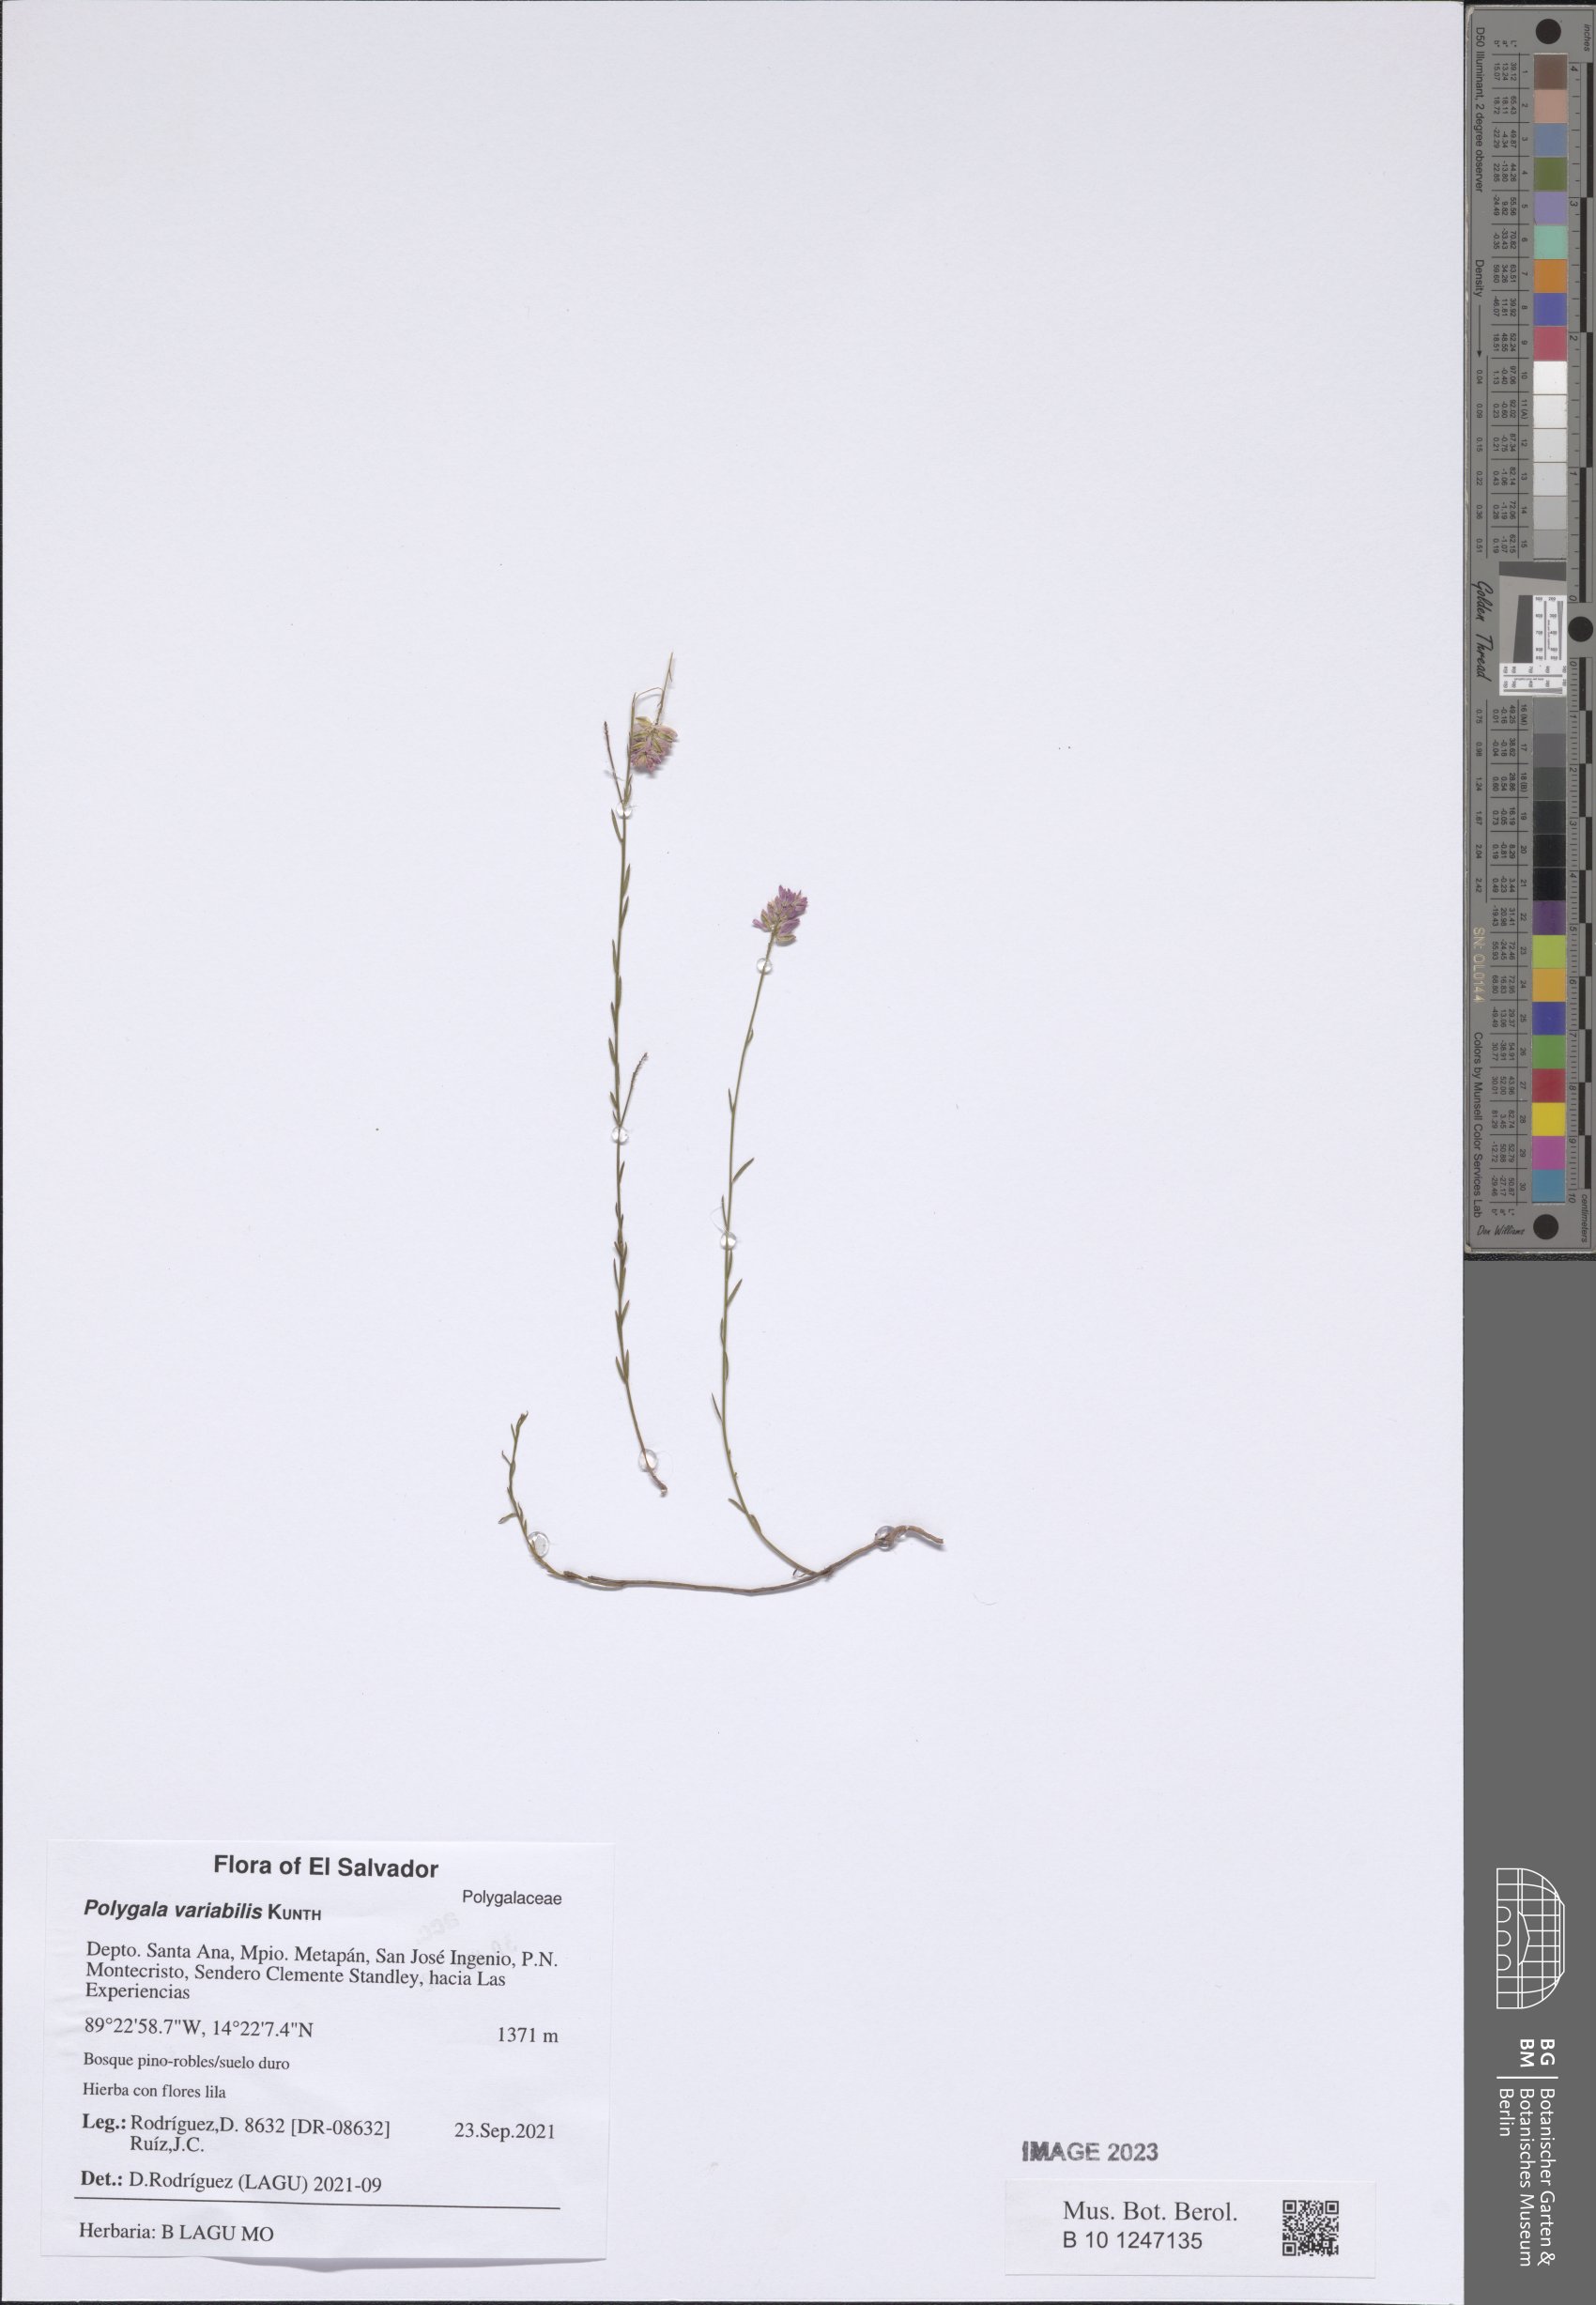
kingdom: Plantae
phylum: Tracheophyta
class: Magnoliopsida
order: Fabales
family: Polygalaceae
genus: Polygala
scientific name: Polygala trichosperma
